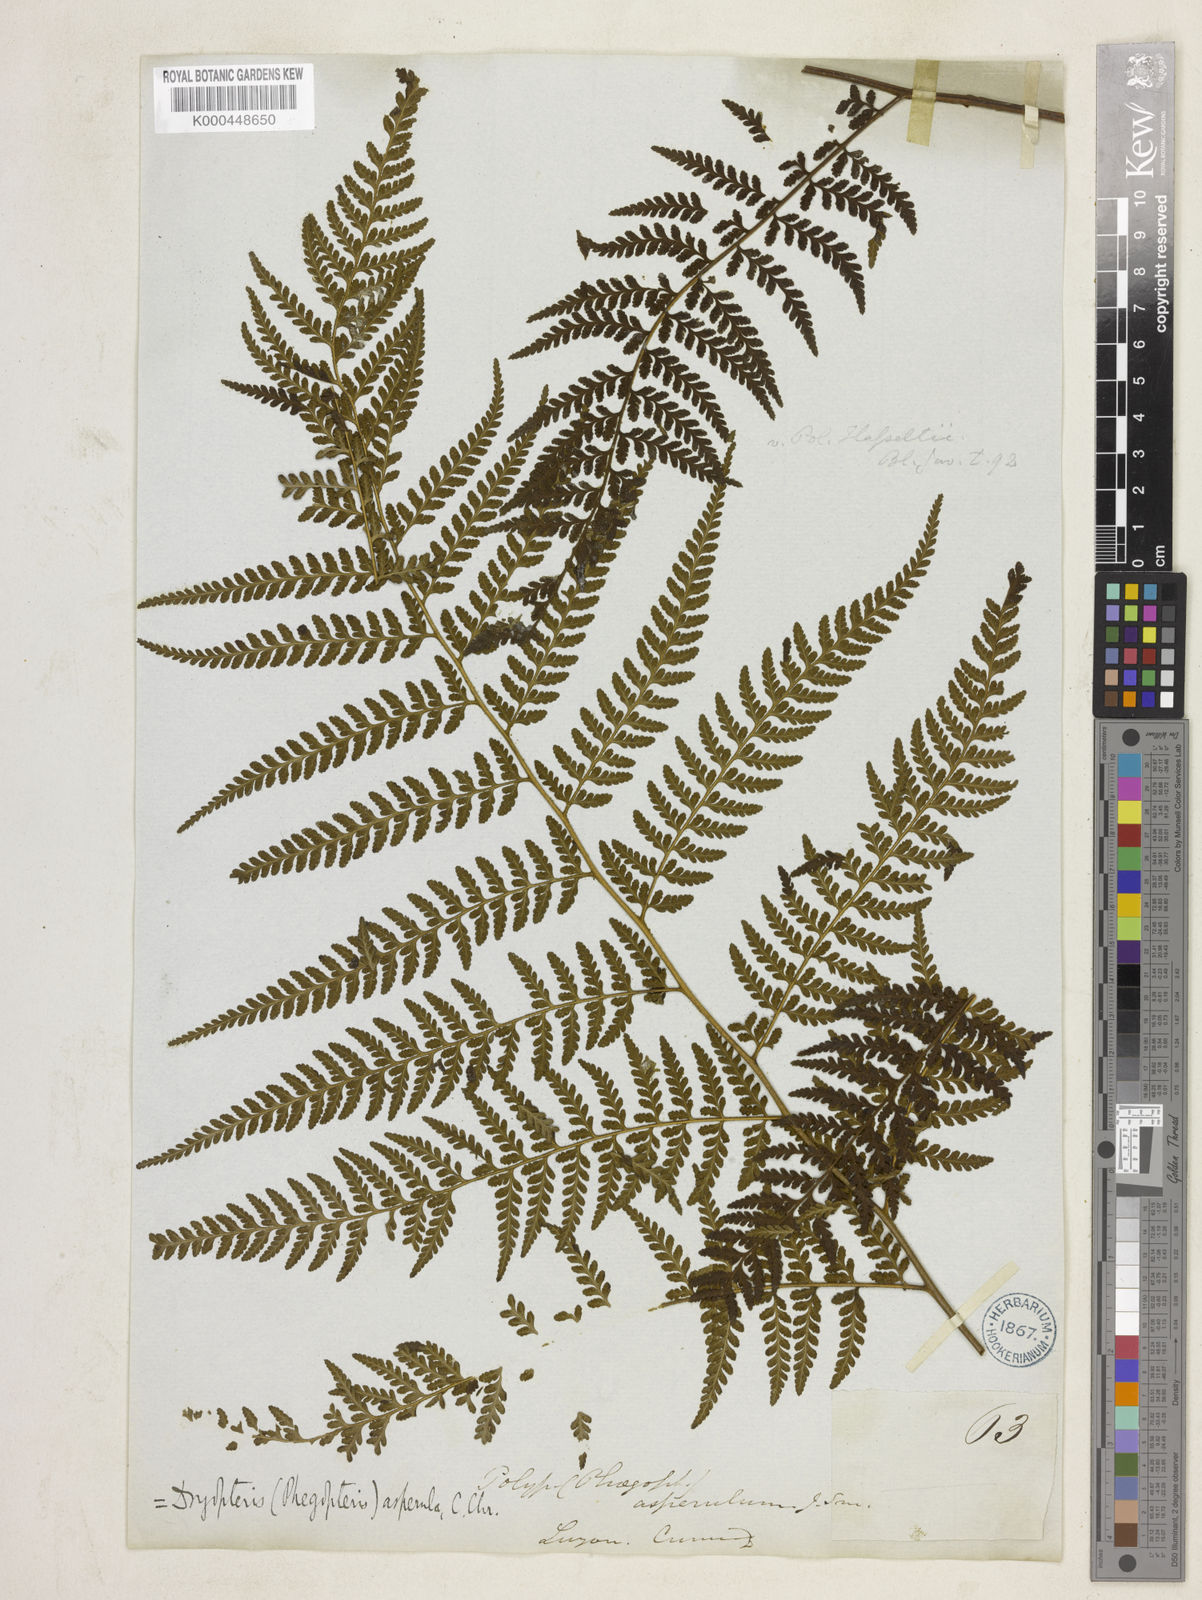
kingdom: Plantae
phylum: Tracheophyta
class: Polypodiopsida
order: Polypodiales
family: Dennstaedtiaceae
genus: Microlepia
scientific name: Microlepia
